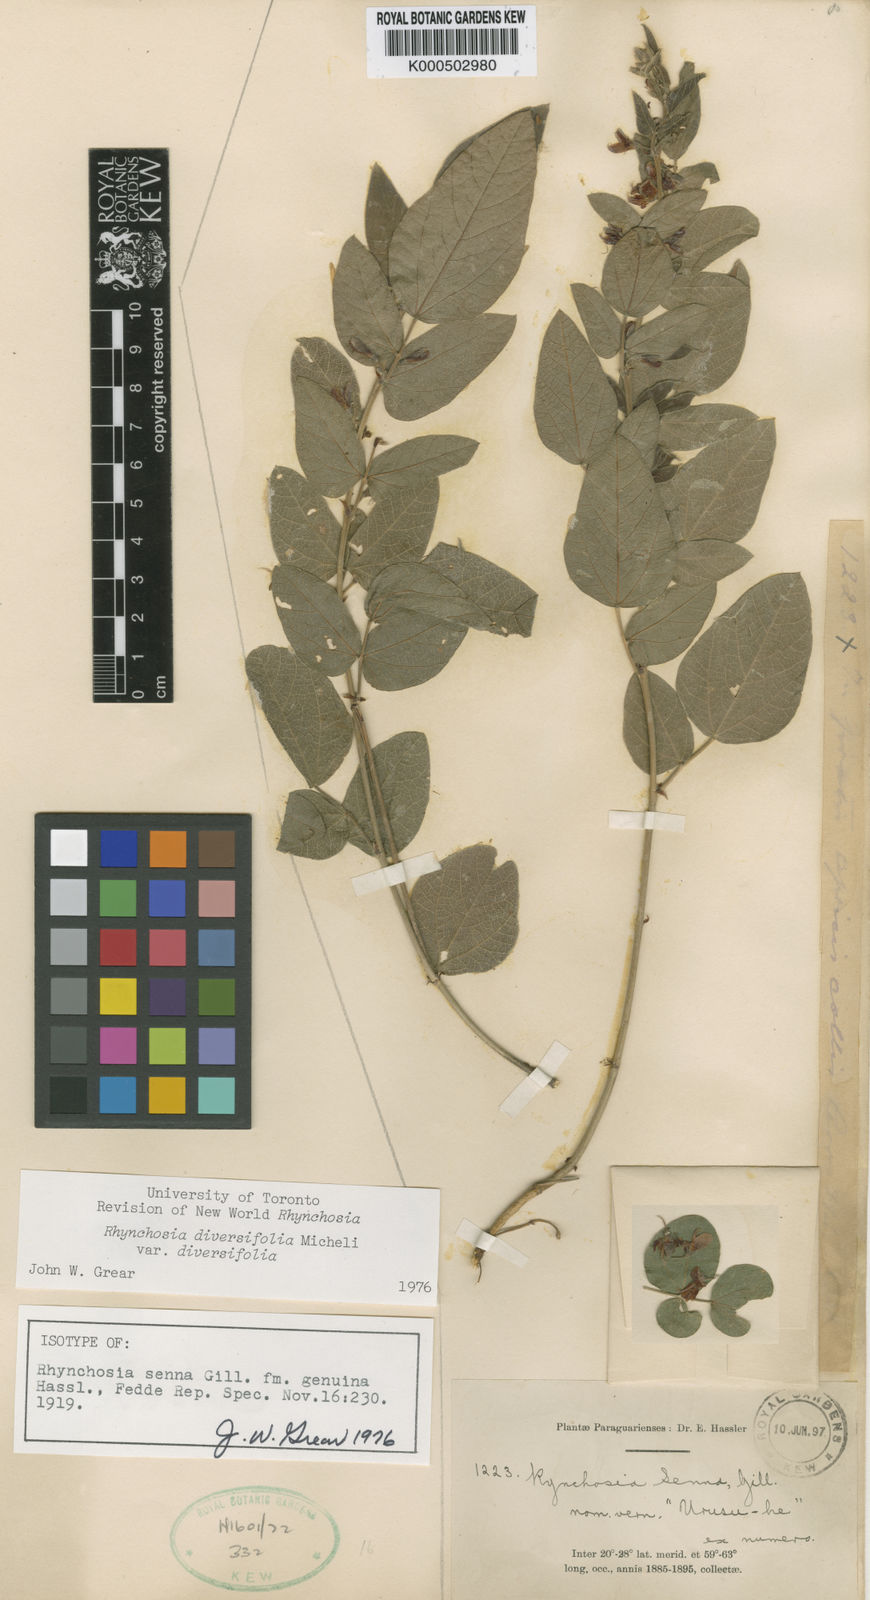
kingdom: Plantae
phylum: Tracheophyta
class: Magnoliopsida
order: Fabales
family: Fabaceae
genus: Rhynchosia
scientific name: Rhynchosia diversifolia
